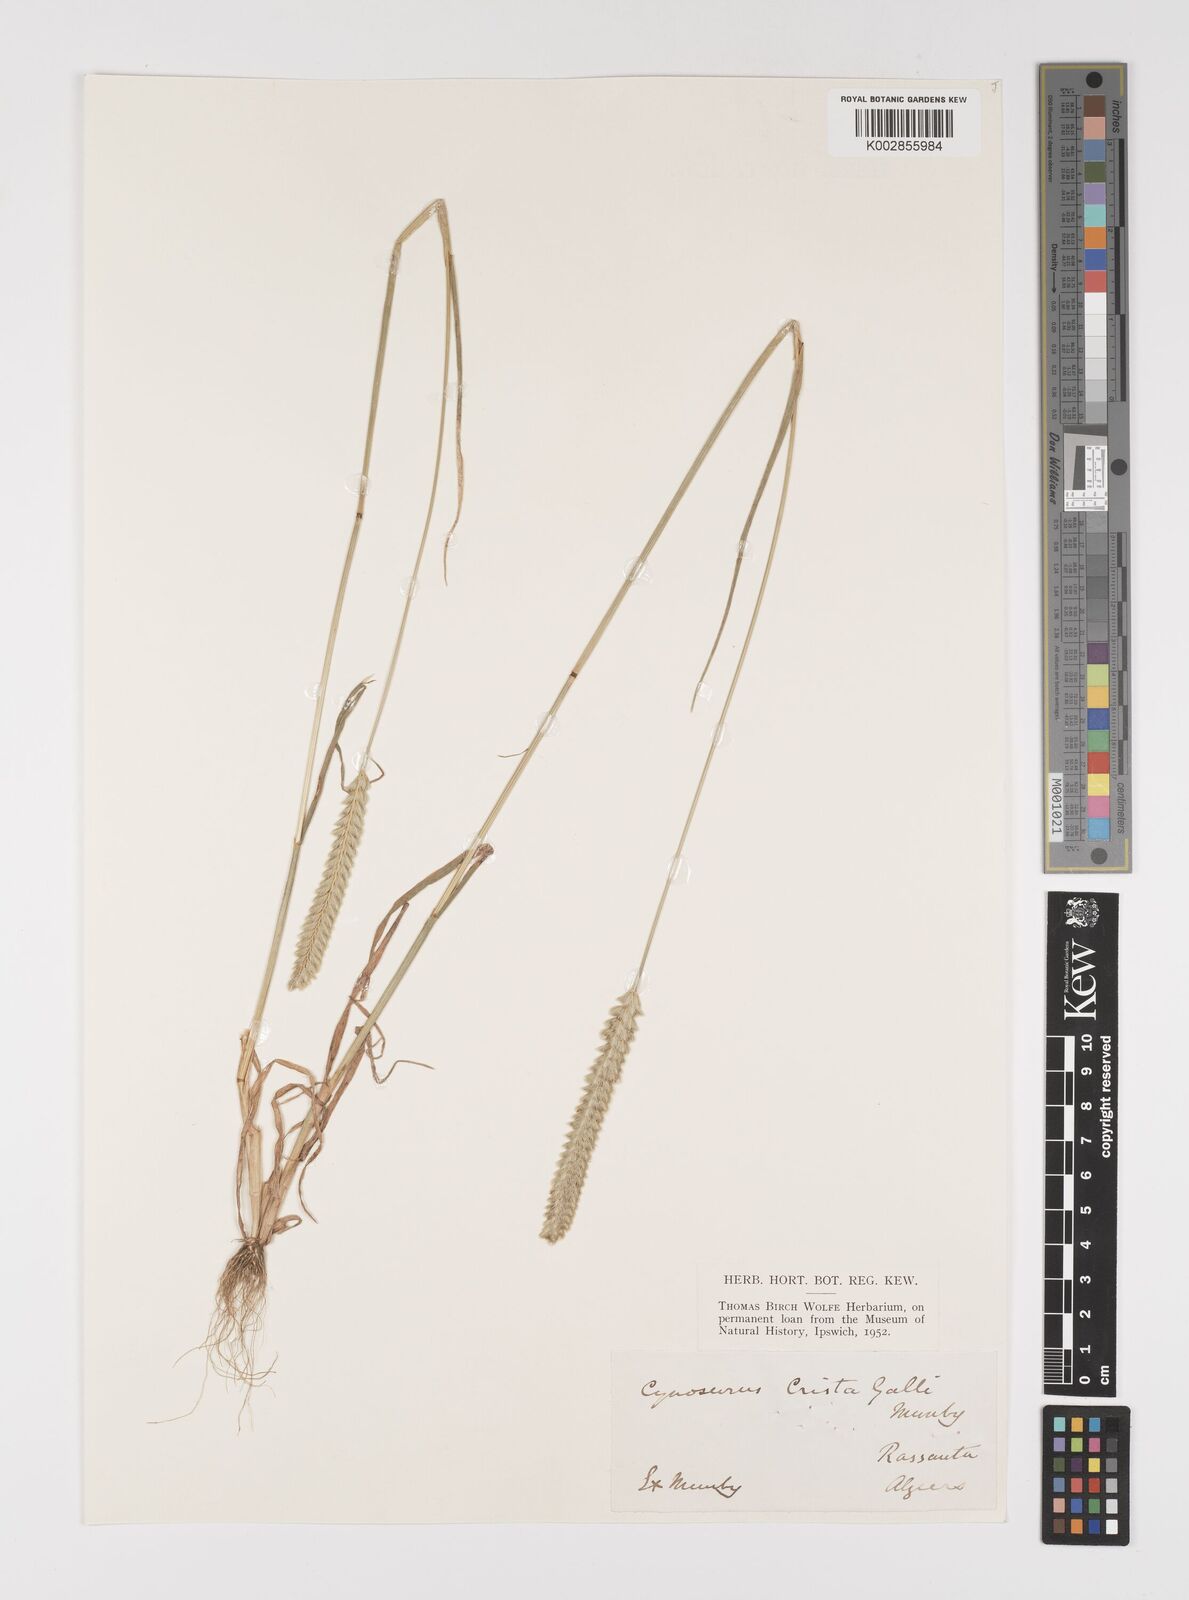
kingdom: Plantae
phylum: Tracheophyta
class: Liliopsida
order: Poales
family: Poaceae
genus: Cynosurus
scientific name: Cynosurus cristatus
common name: Crested dog's-tail
